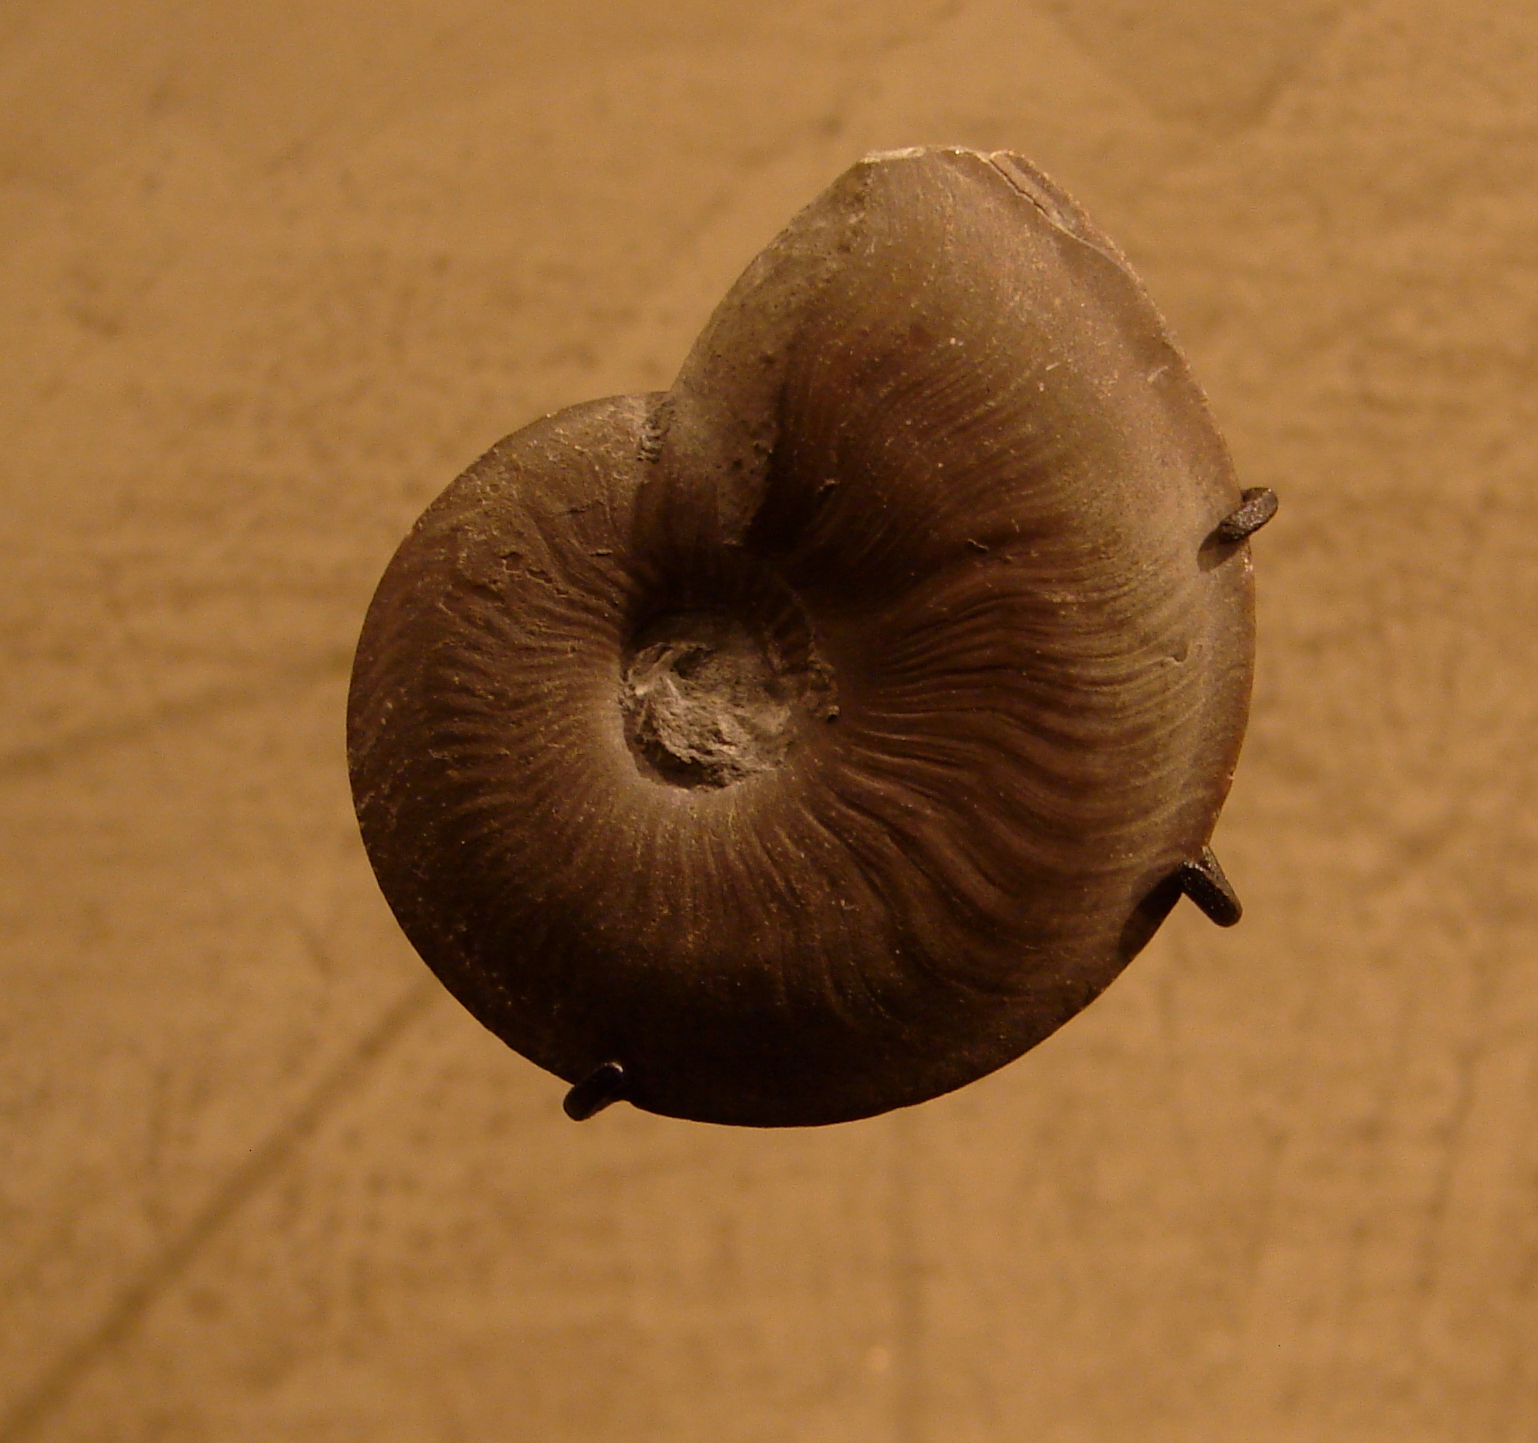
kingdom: Animalia
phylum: Mollusca
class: Cephalopoda
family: Oxynoticeratidae
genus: Oxynoticeras
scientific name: Oxynoticeras
